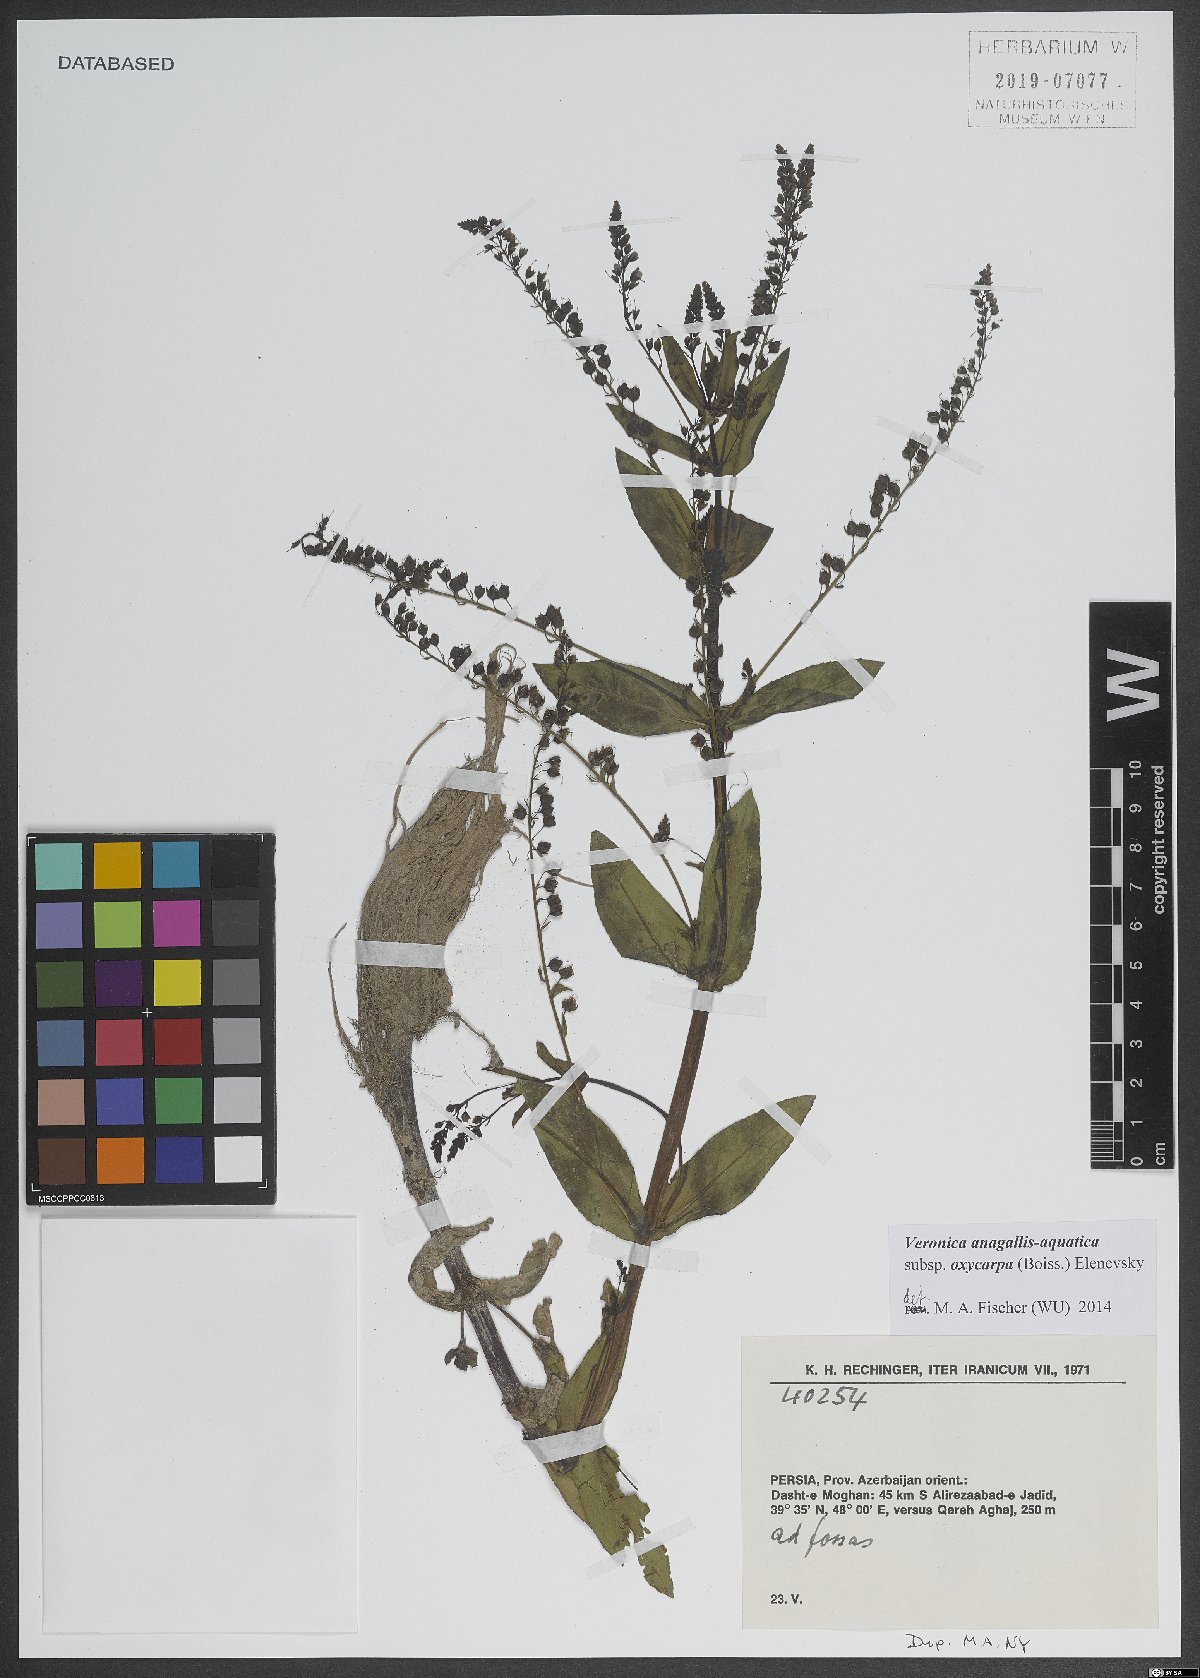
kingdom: Plantae
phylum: Tracheophyta
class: Magnoliopsida
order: Lamiales
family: Plantaginaceae
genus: Veronica
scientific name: Veronica oxycarpa
